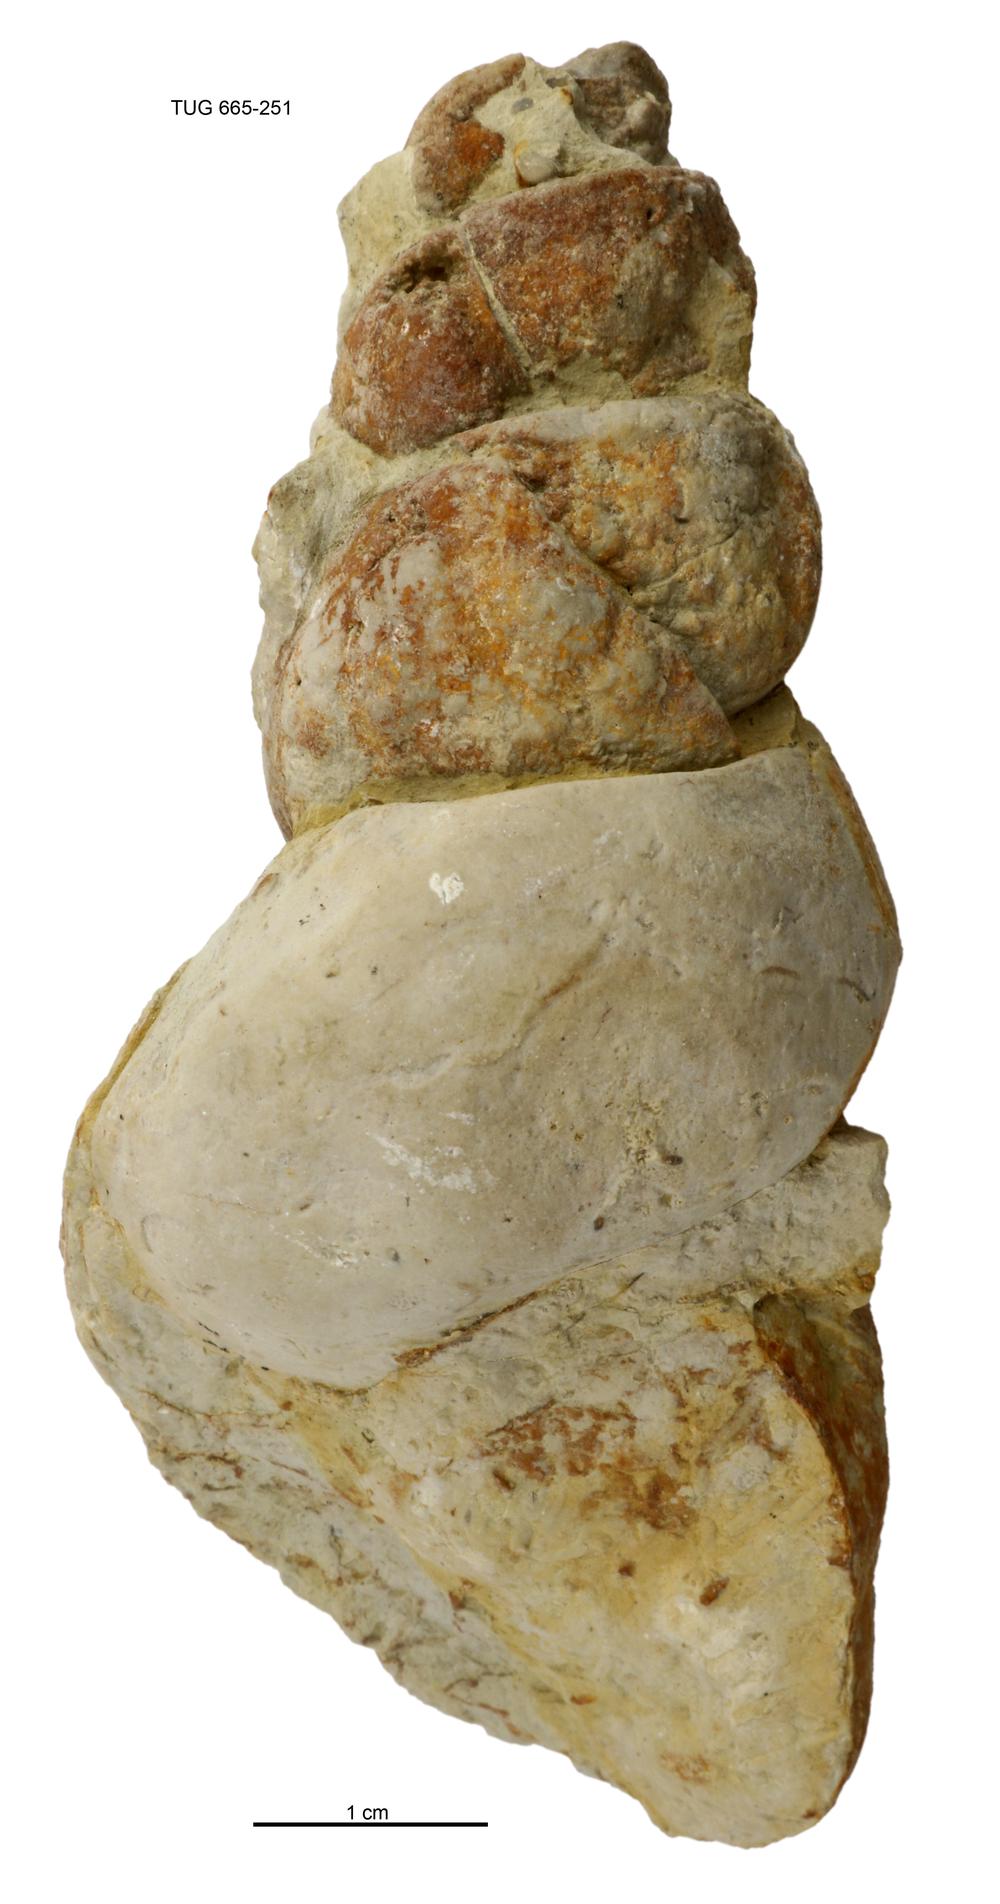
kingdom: Animalia
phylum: Mollusca
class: Gastropoda
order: Pleurotomariida
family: Murchisoniidae
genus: Murchisonia
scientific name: Murchisonia insignis
